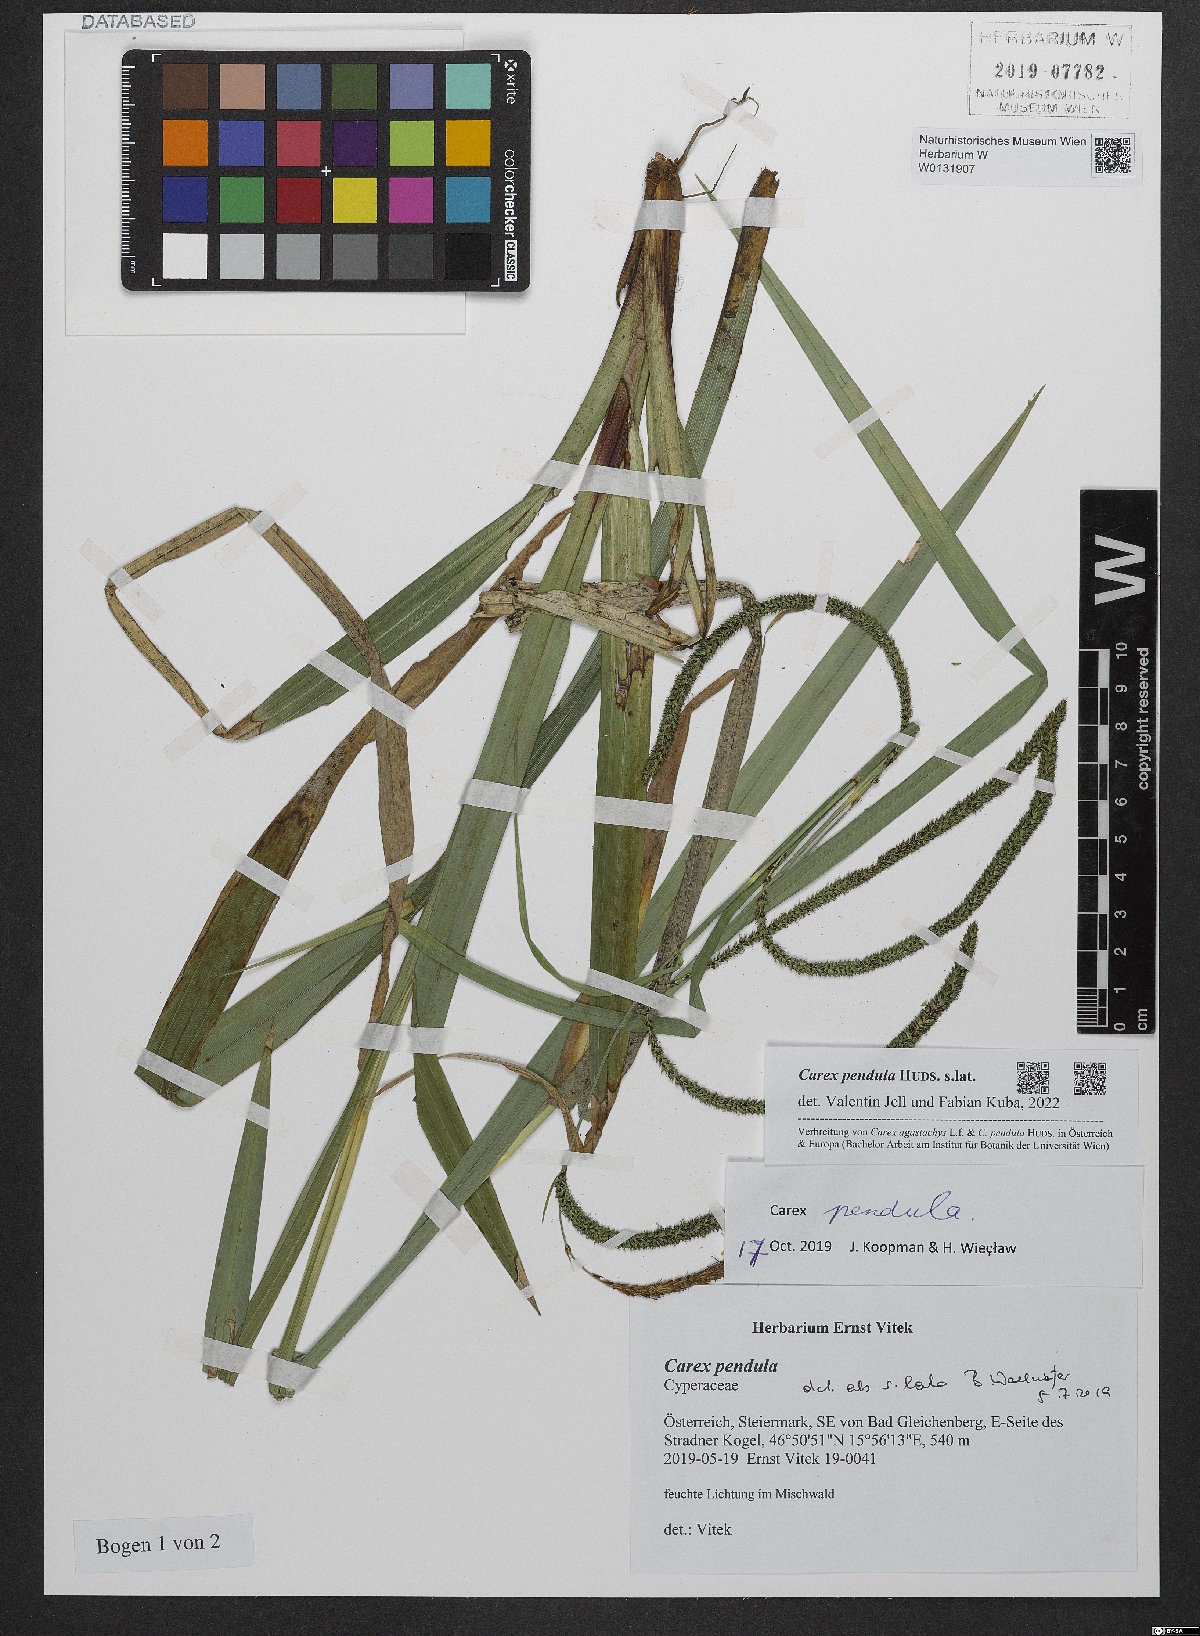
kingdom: Plantae
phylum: Tracheophyta
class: Liliopsida
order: Poales
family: Cyperaceae
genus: Carex
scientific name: Carex pendula
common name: Pendulous sedge
